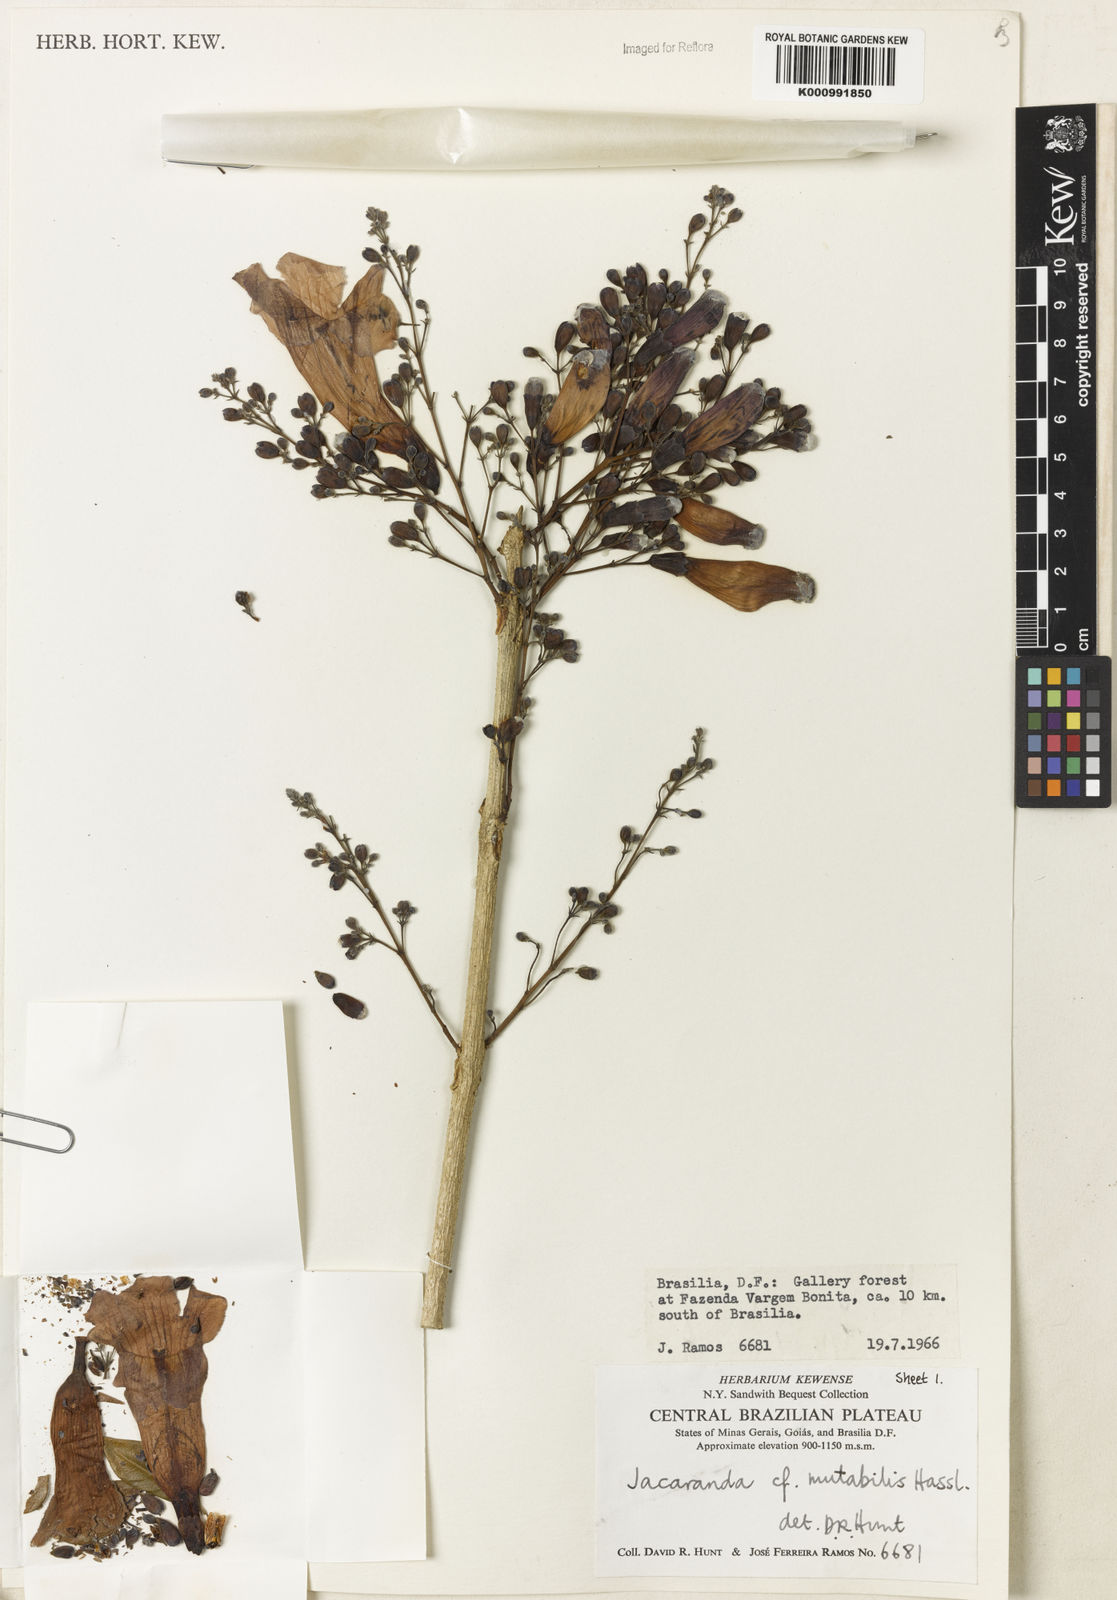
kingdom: Plantae
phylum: Tracheophyta
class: Magnoliopsida
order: Lamiales
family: Bignoniaceae
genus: Jacaranda
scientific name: Jacaranda mutabilis
